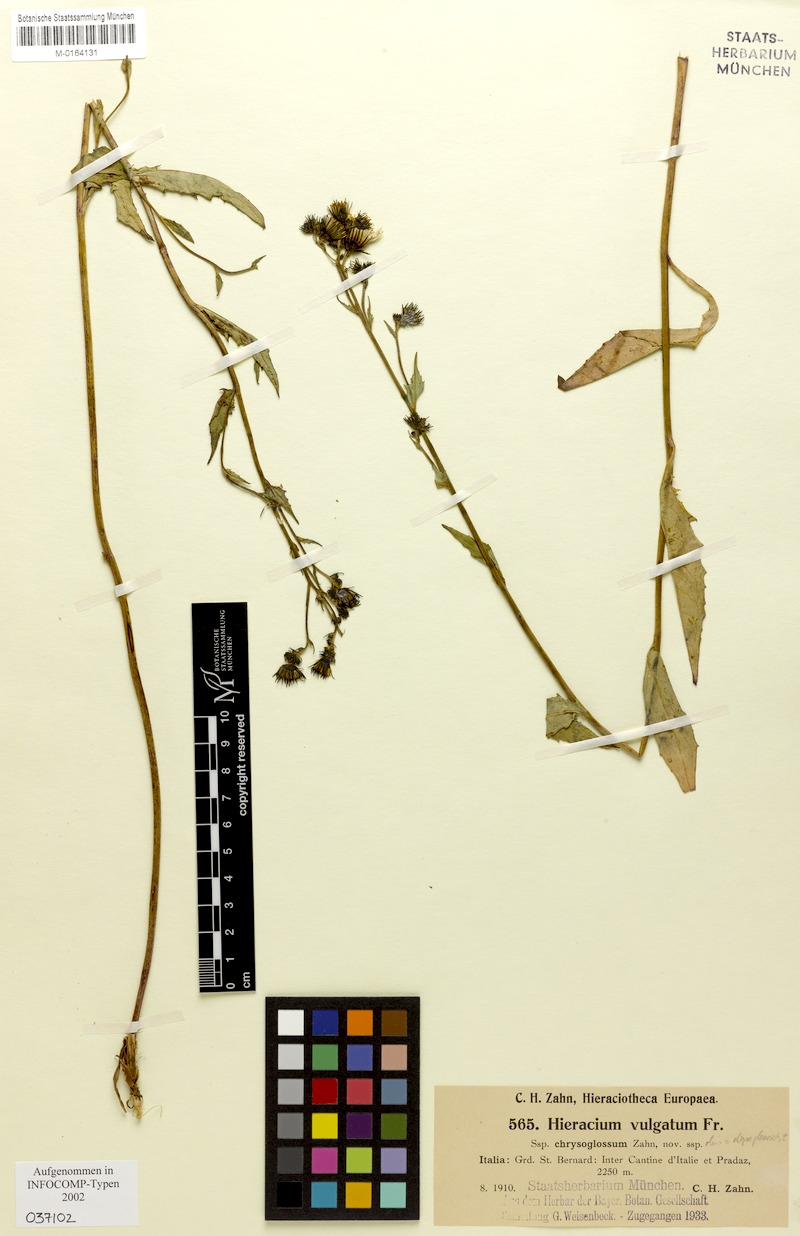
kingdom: Plantae
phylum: Tracheophyta
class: Magnoliopsida
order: Asterales
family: Asteraceae
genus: Hieracium
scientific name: Hieracium lachenalii
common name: Common hawkweed
